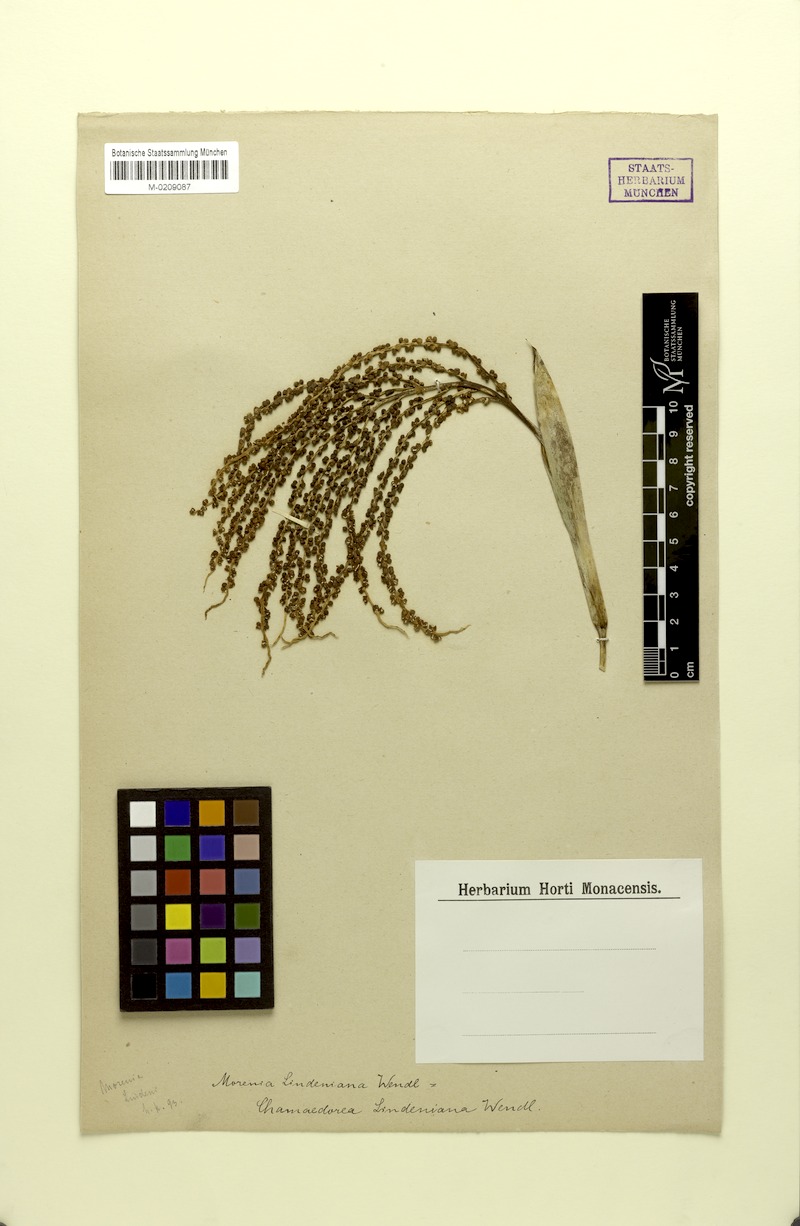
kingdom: Plantae
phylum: Tracheophyta
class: Liliopsida
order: Arecales
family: Arecaceae
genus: Chamaedorea
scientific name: Chamaedorea linearis
